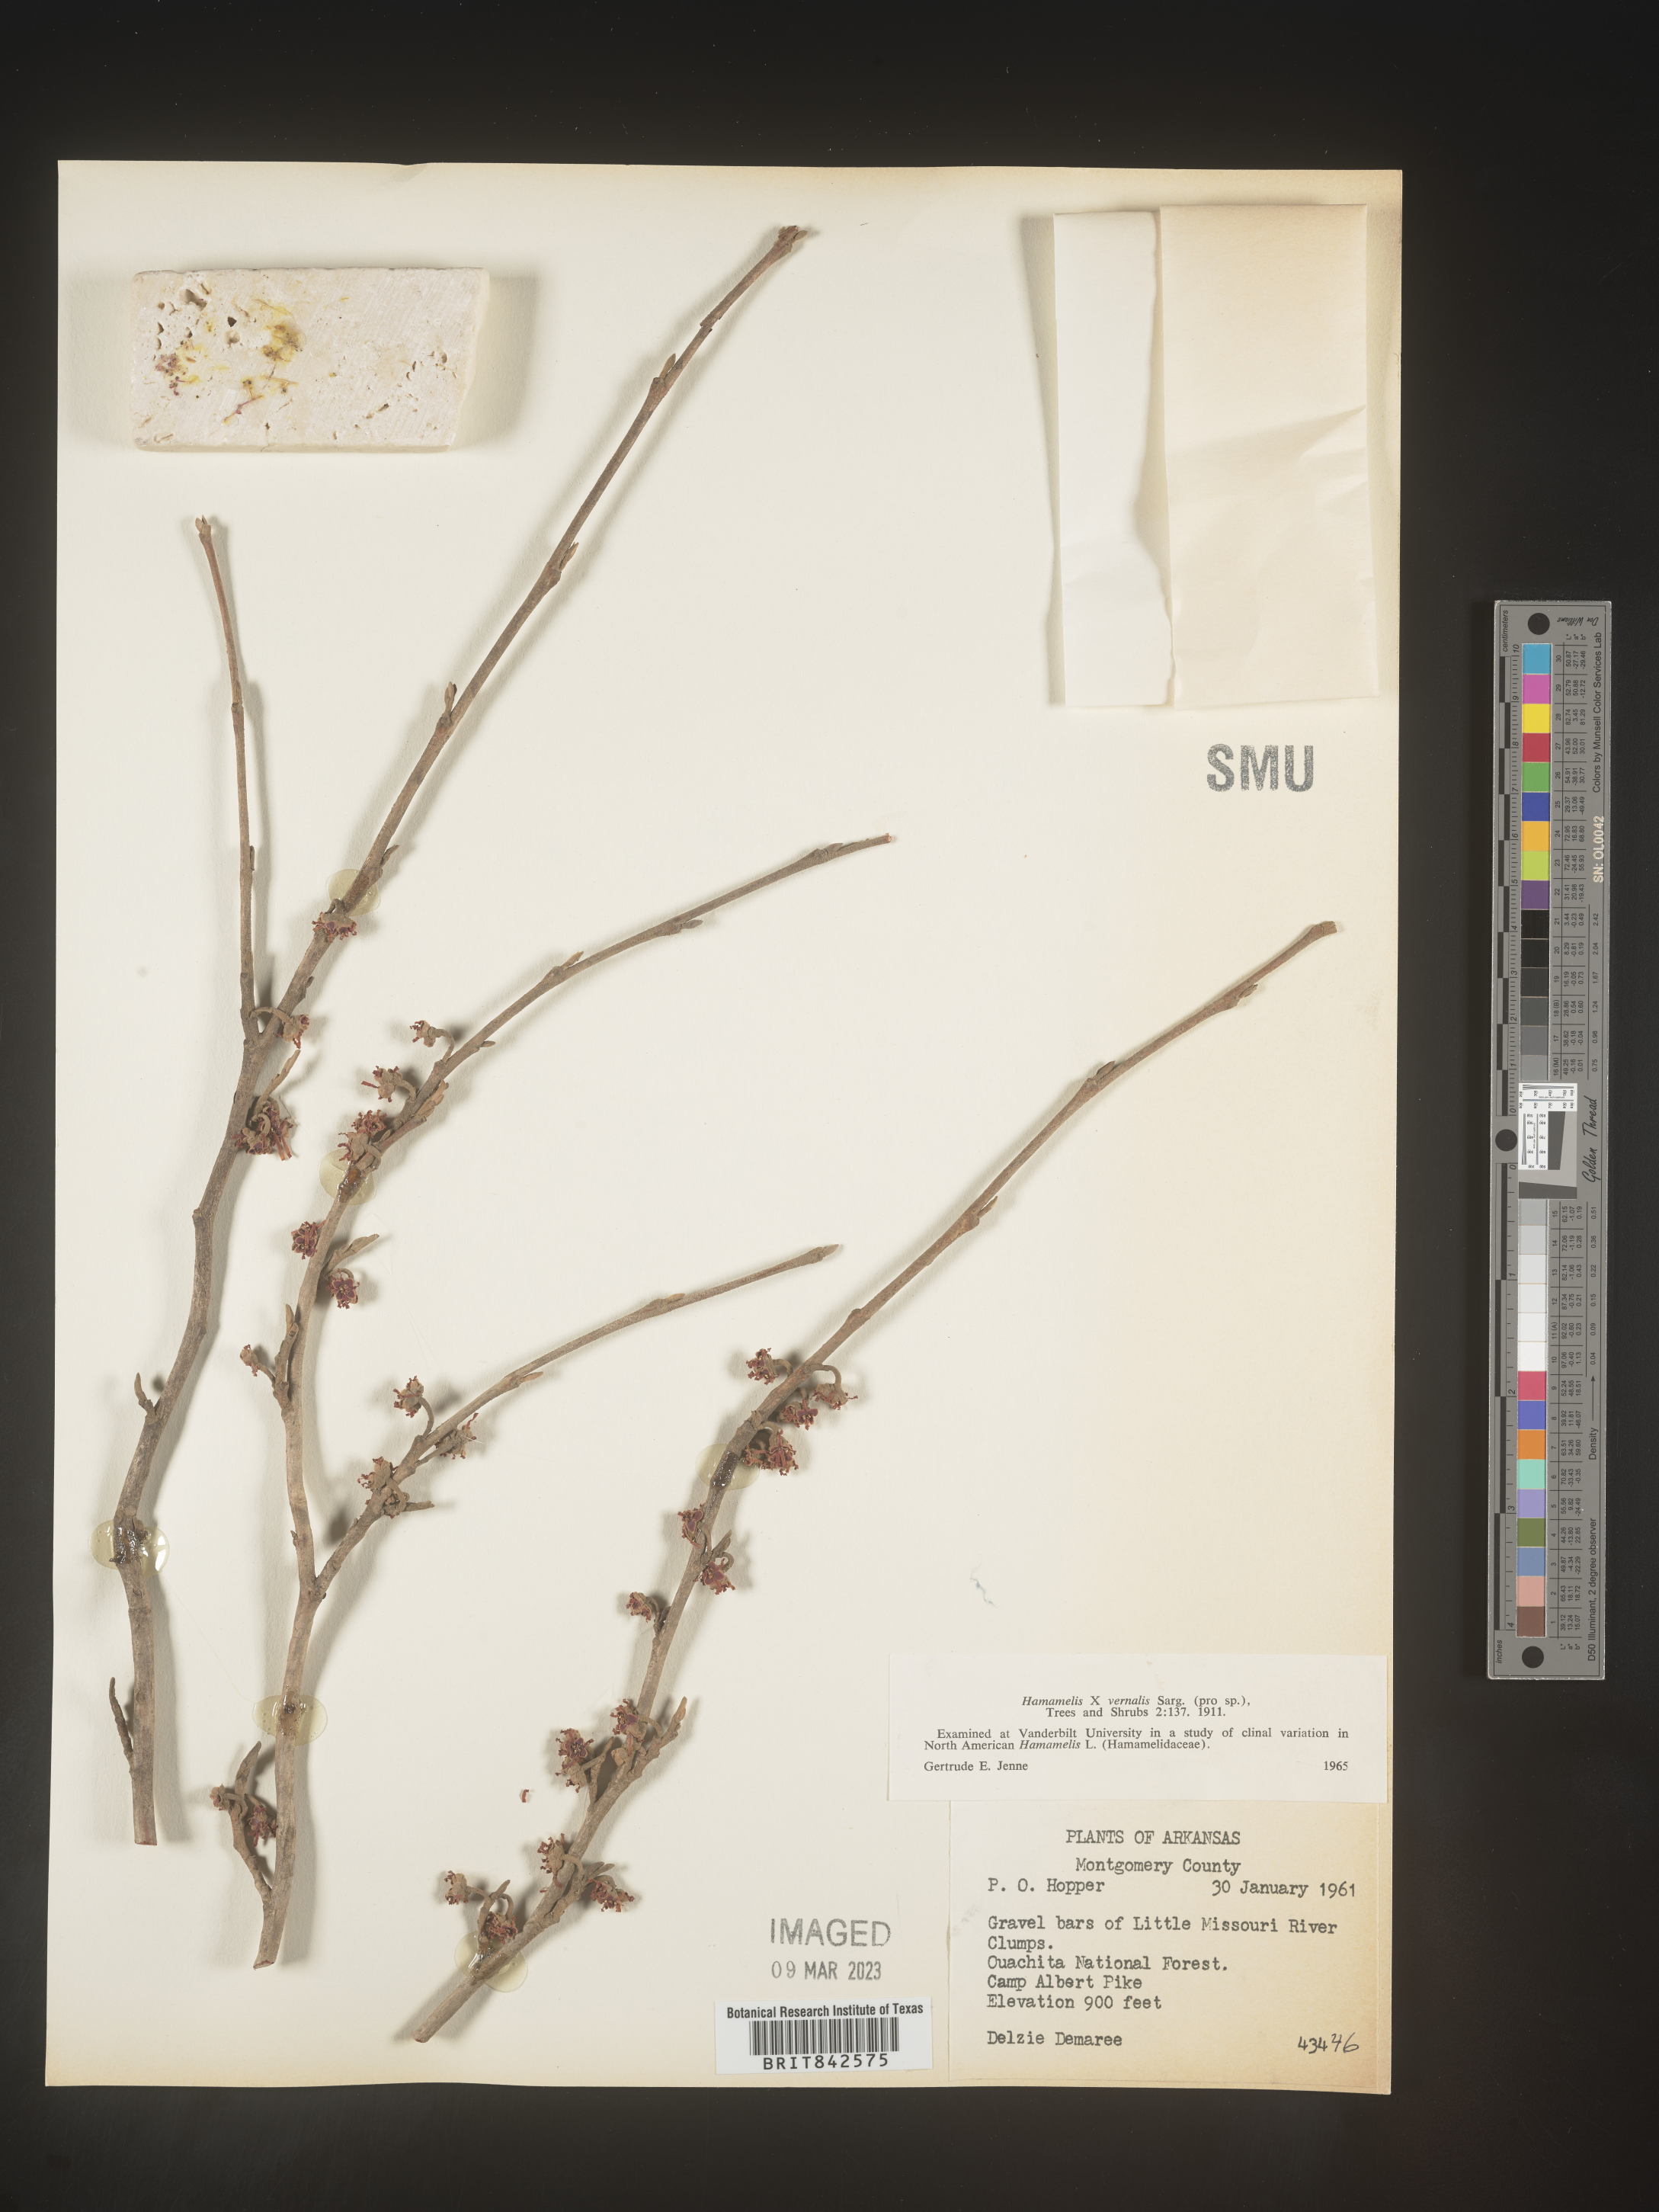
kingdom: Plantae
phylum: Tracheophyta
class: Magnoliopsida
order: Saxifragales
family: Hamamelidaceae
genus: Hamamelis
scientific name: Hamamelis vernalis
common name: Ozark witch-hazel
